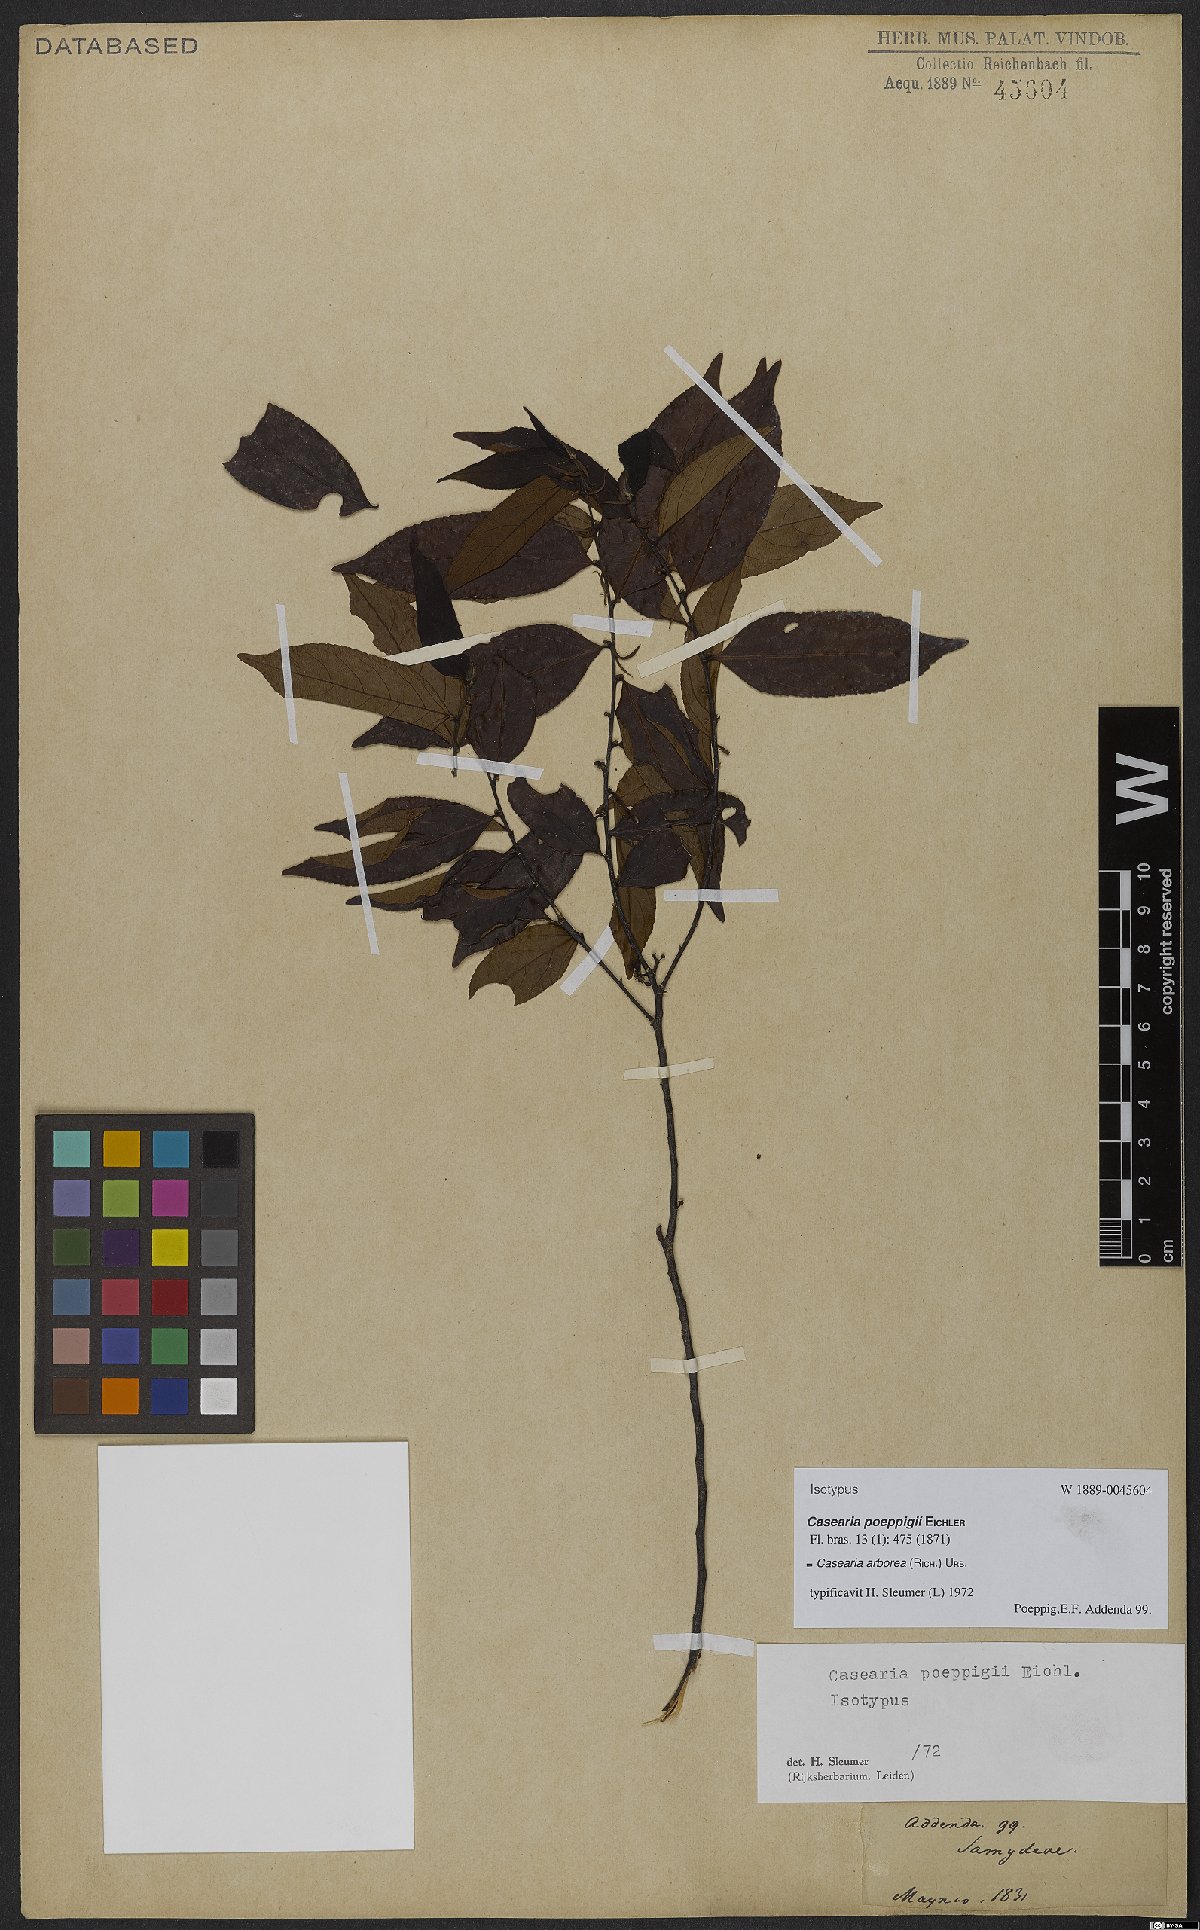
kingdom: Plantae
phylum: Tracheophyta
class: Magnoliopsida
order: Malpighiales
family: Salicaceae
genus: Casearia
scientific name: Casearia arborea
